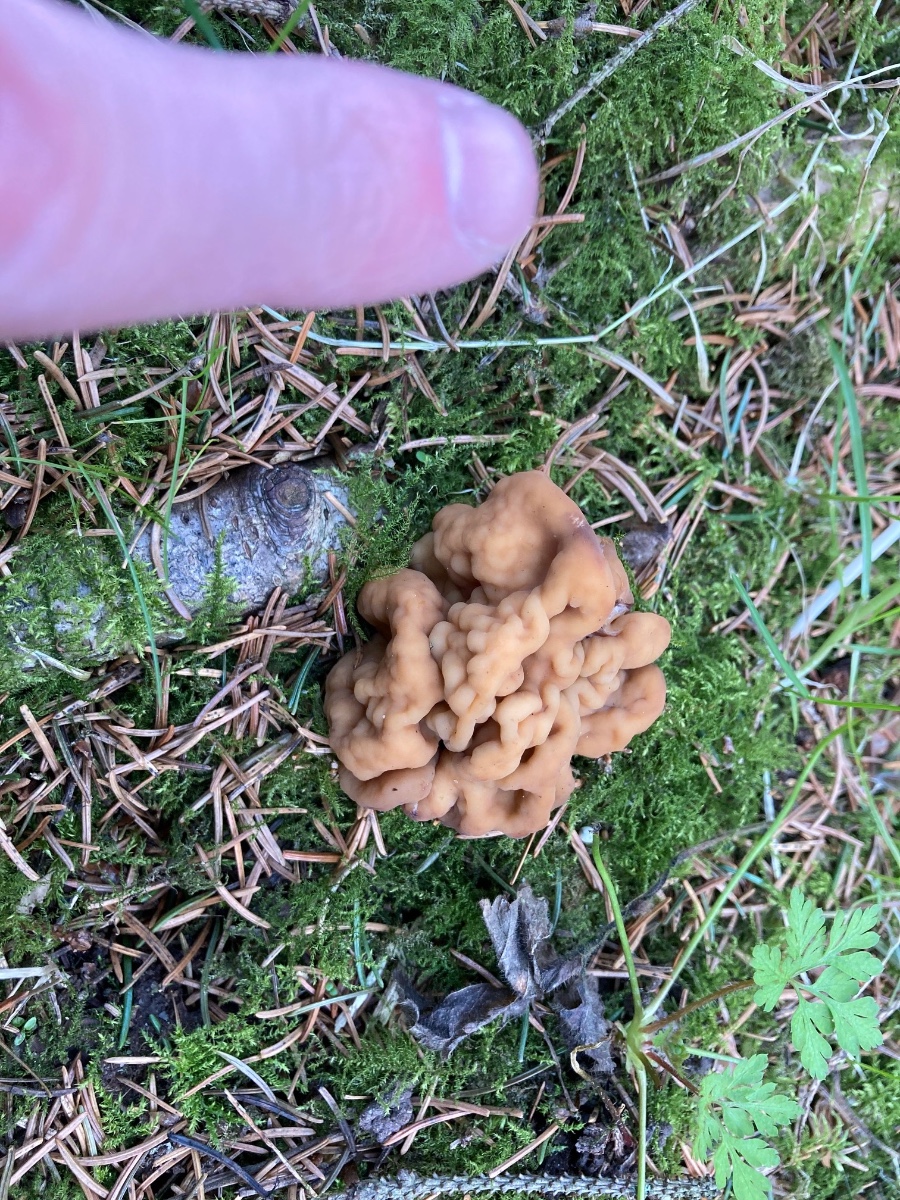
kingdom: Fungi
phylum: Ascomycota
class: Pezizomycetes
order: Pezizales
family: Discinaceae
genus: Gyromitra
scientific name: Gyromitra gigas
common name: kæmpe-stenmorkel
